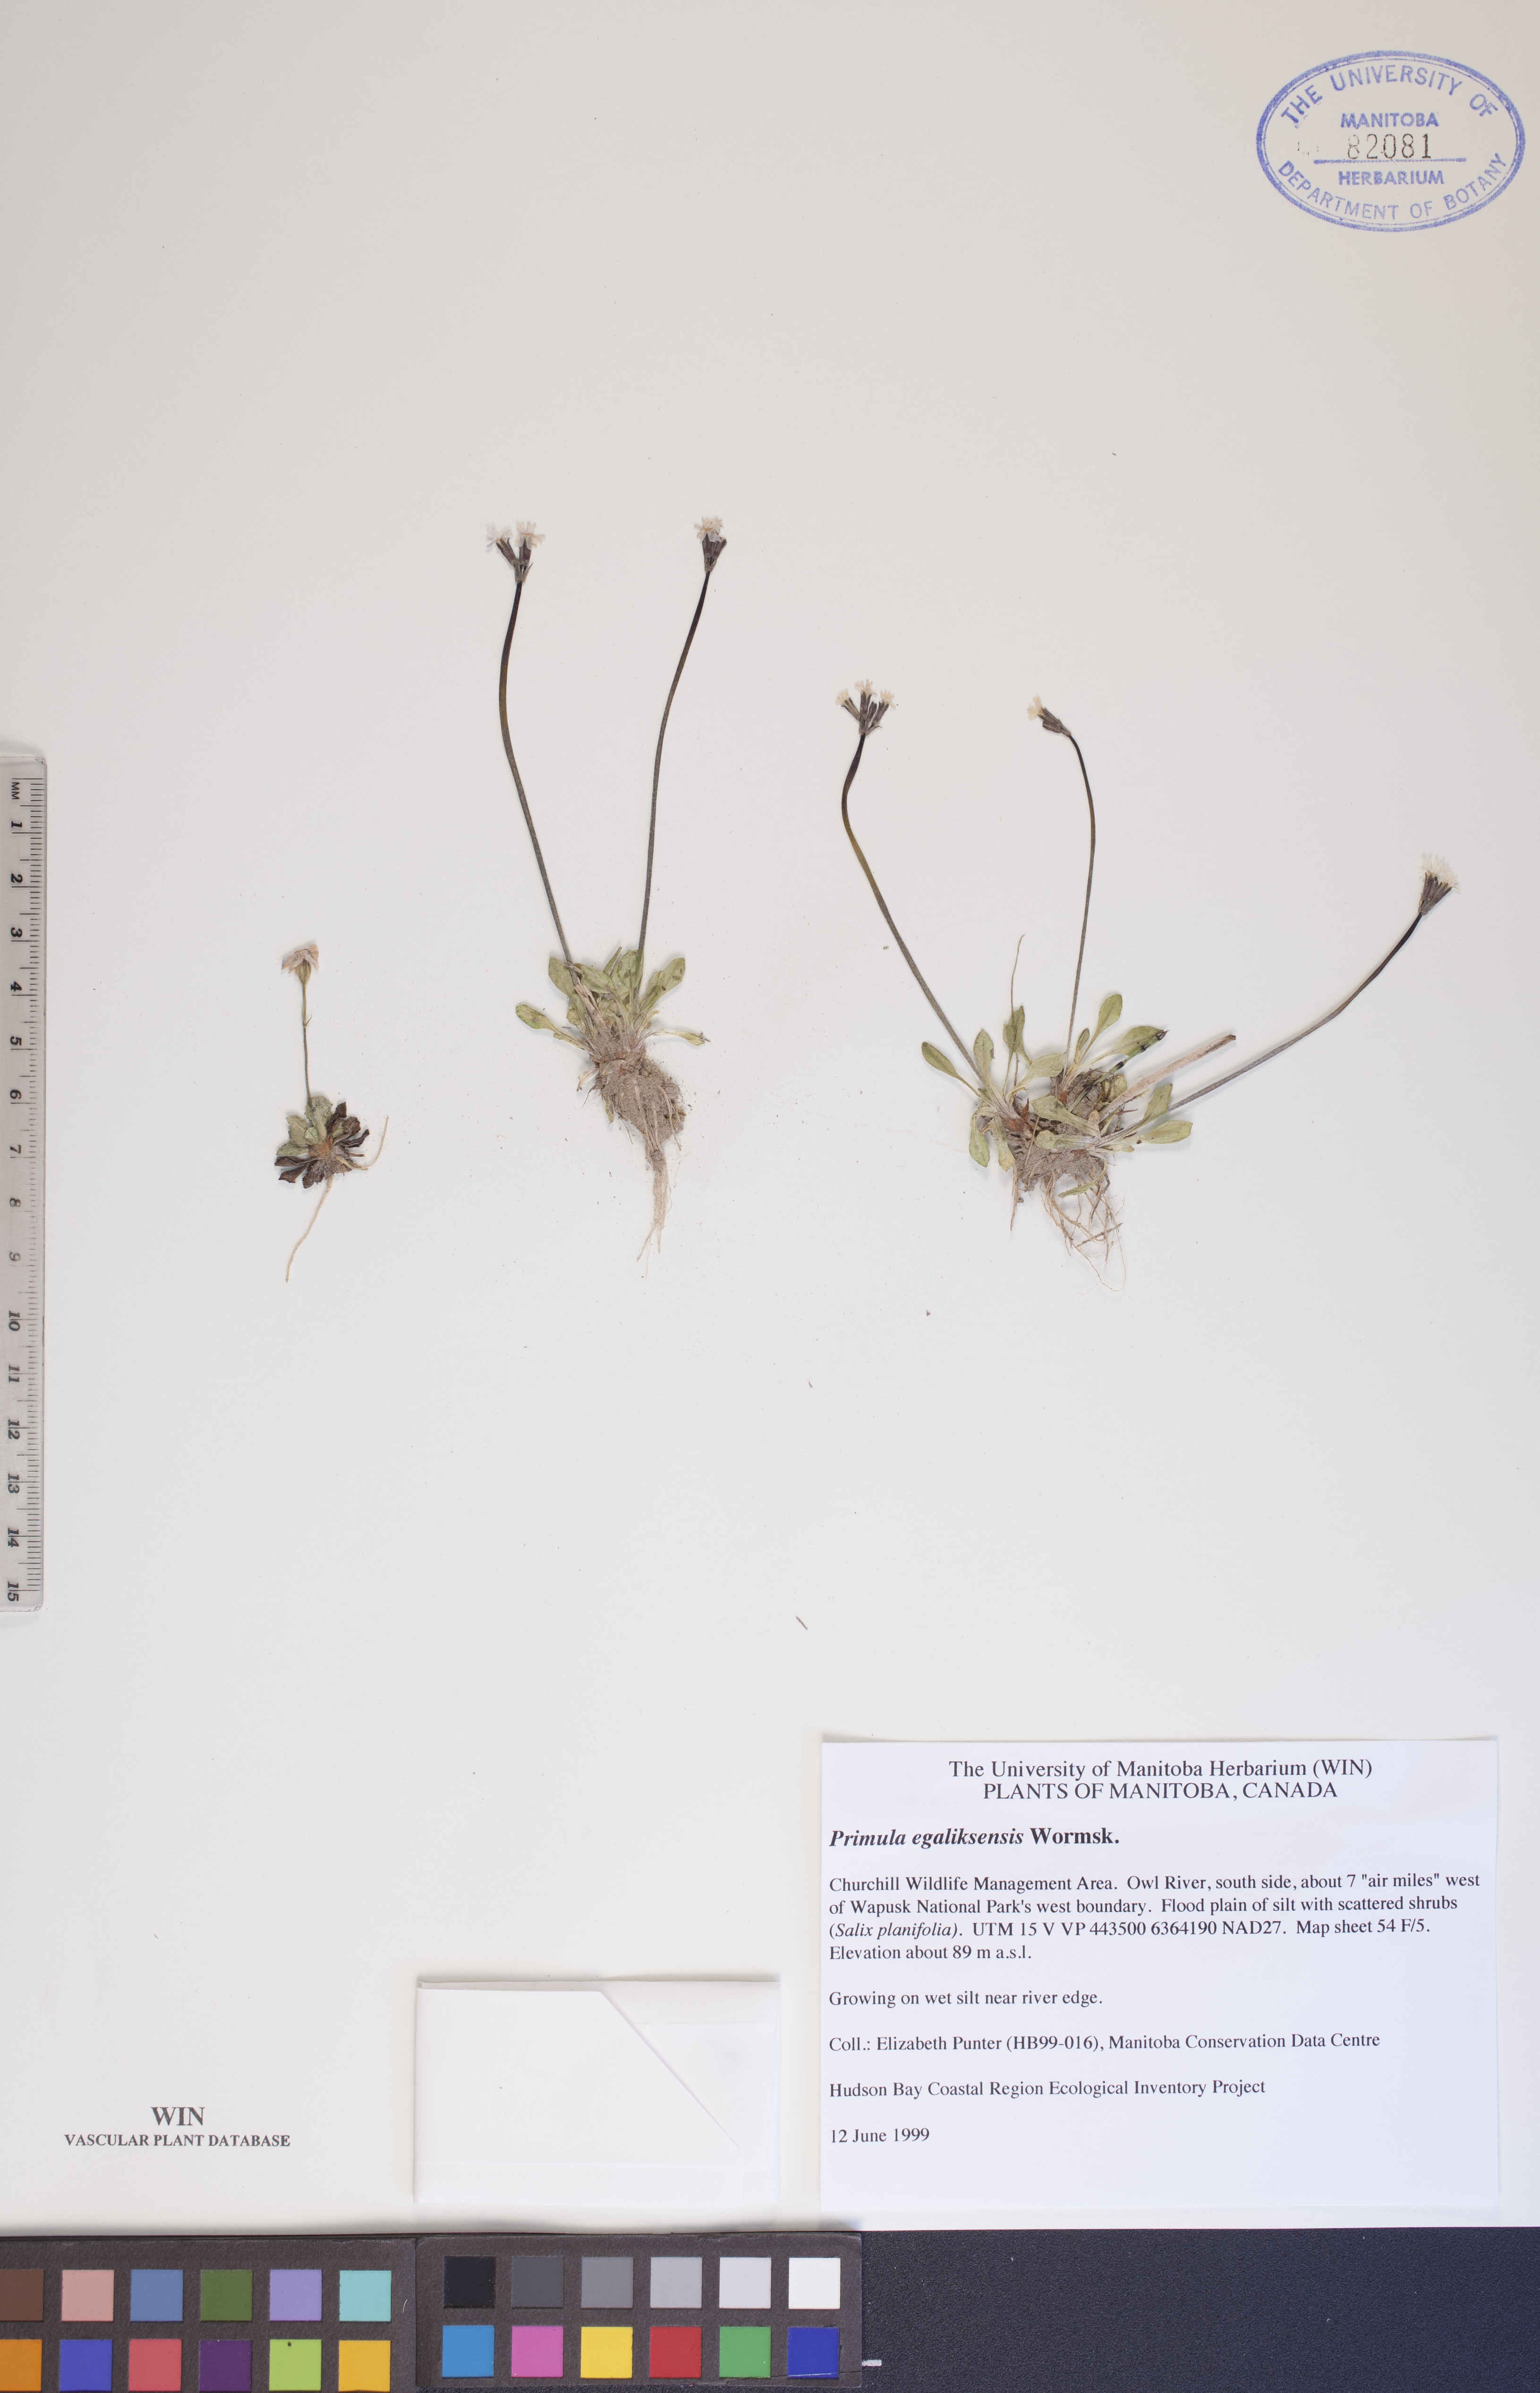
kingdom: Plantae
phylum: Tracheophyta
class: Magnoliopsida
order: Ericales
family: Primulaceae
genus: Primula
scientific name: Primula egaliksensis
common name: Greenland primrose
